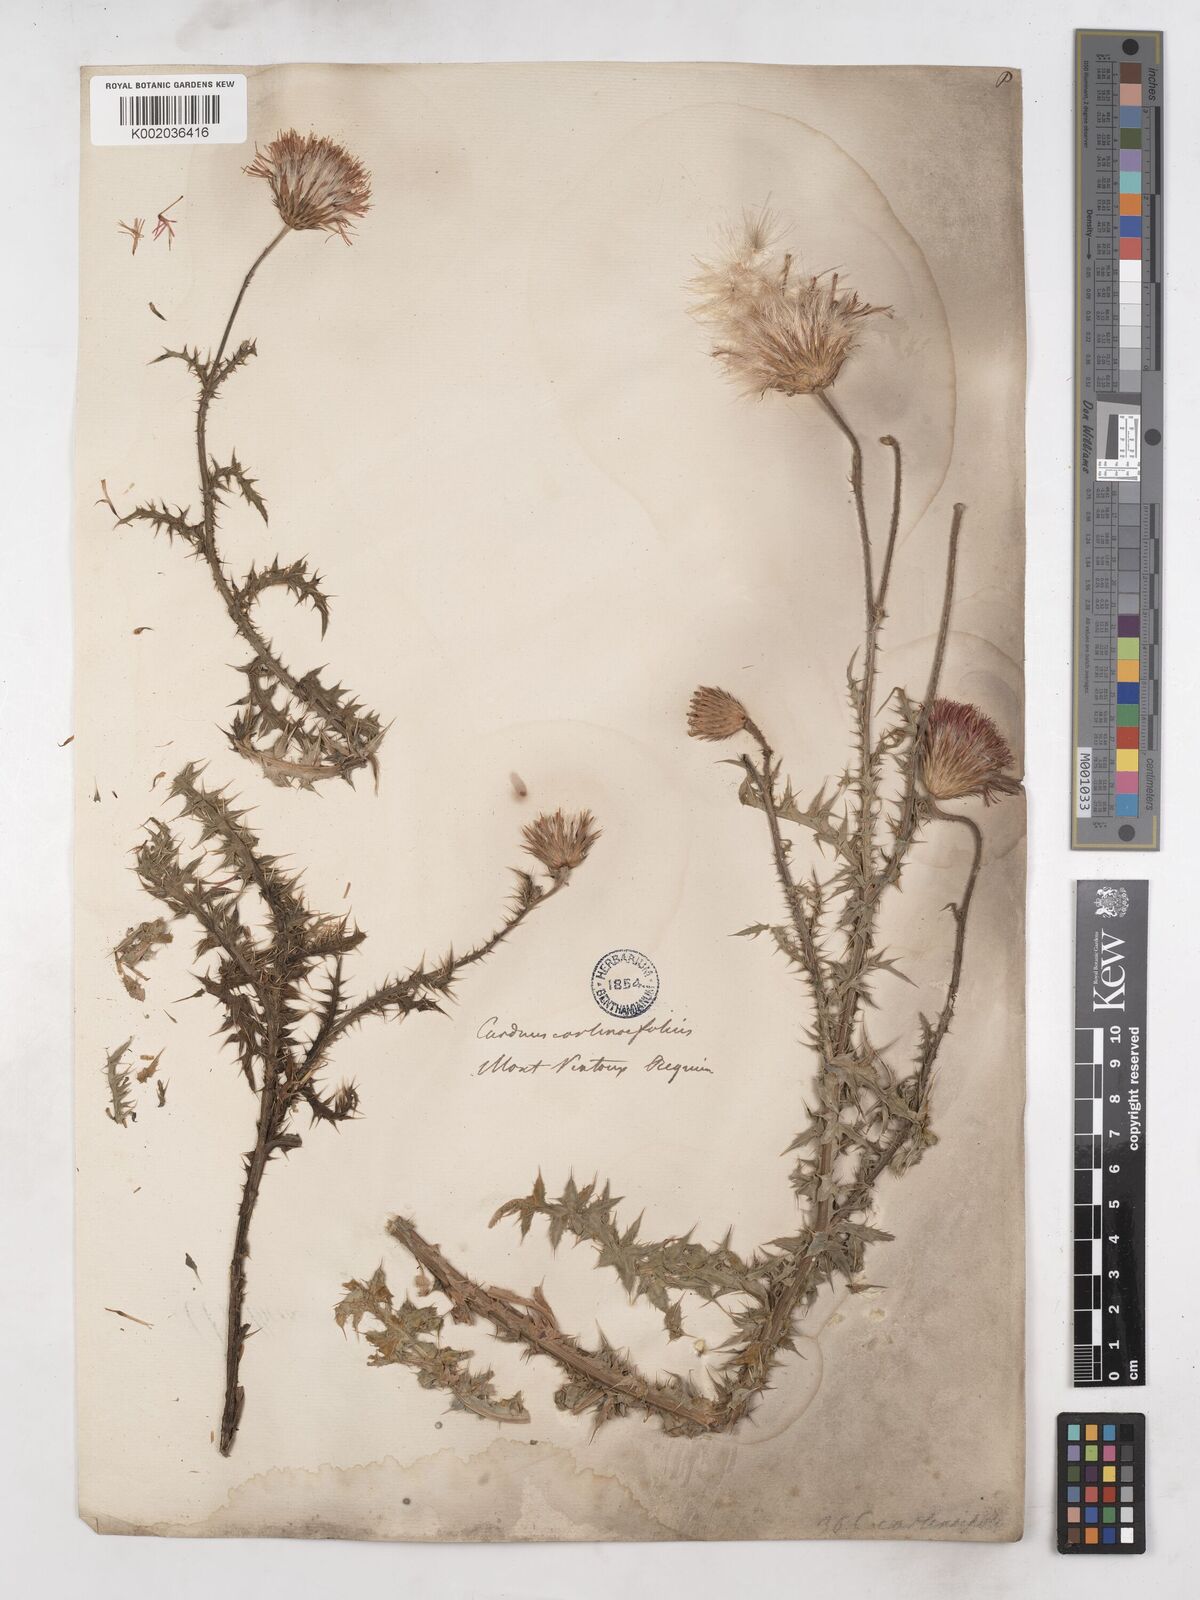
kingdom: Plantae
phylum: Tracheophyta
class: Magnoliopsida
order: Asterales
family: Asteraceae
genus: Carduus
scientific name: Carduus carlinifolius
